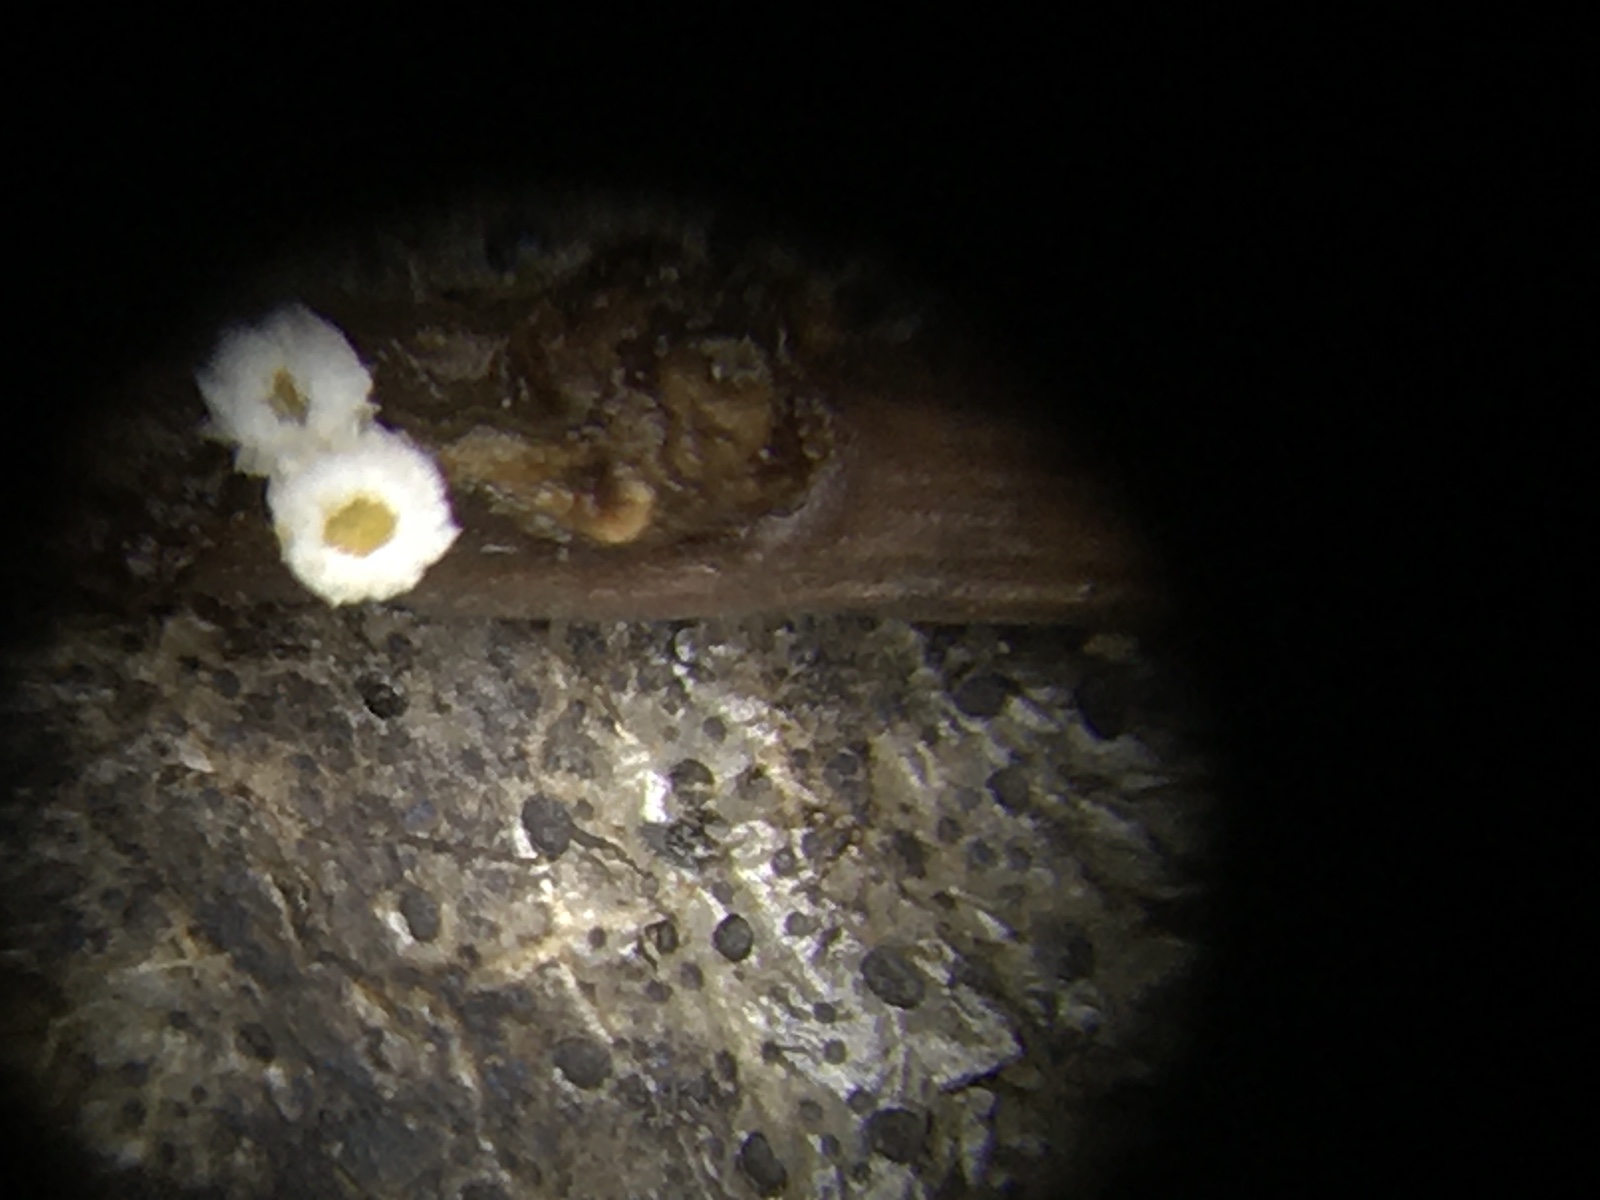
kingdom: Fungi
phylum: Ascomycota
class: Leotiomycetes
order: Helotiales
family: Lachnaceae
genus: Capitotricha
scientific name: Capitotricha bicolor
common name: prægtig frynseskive
